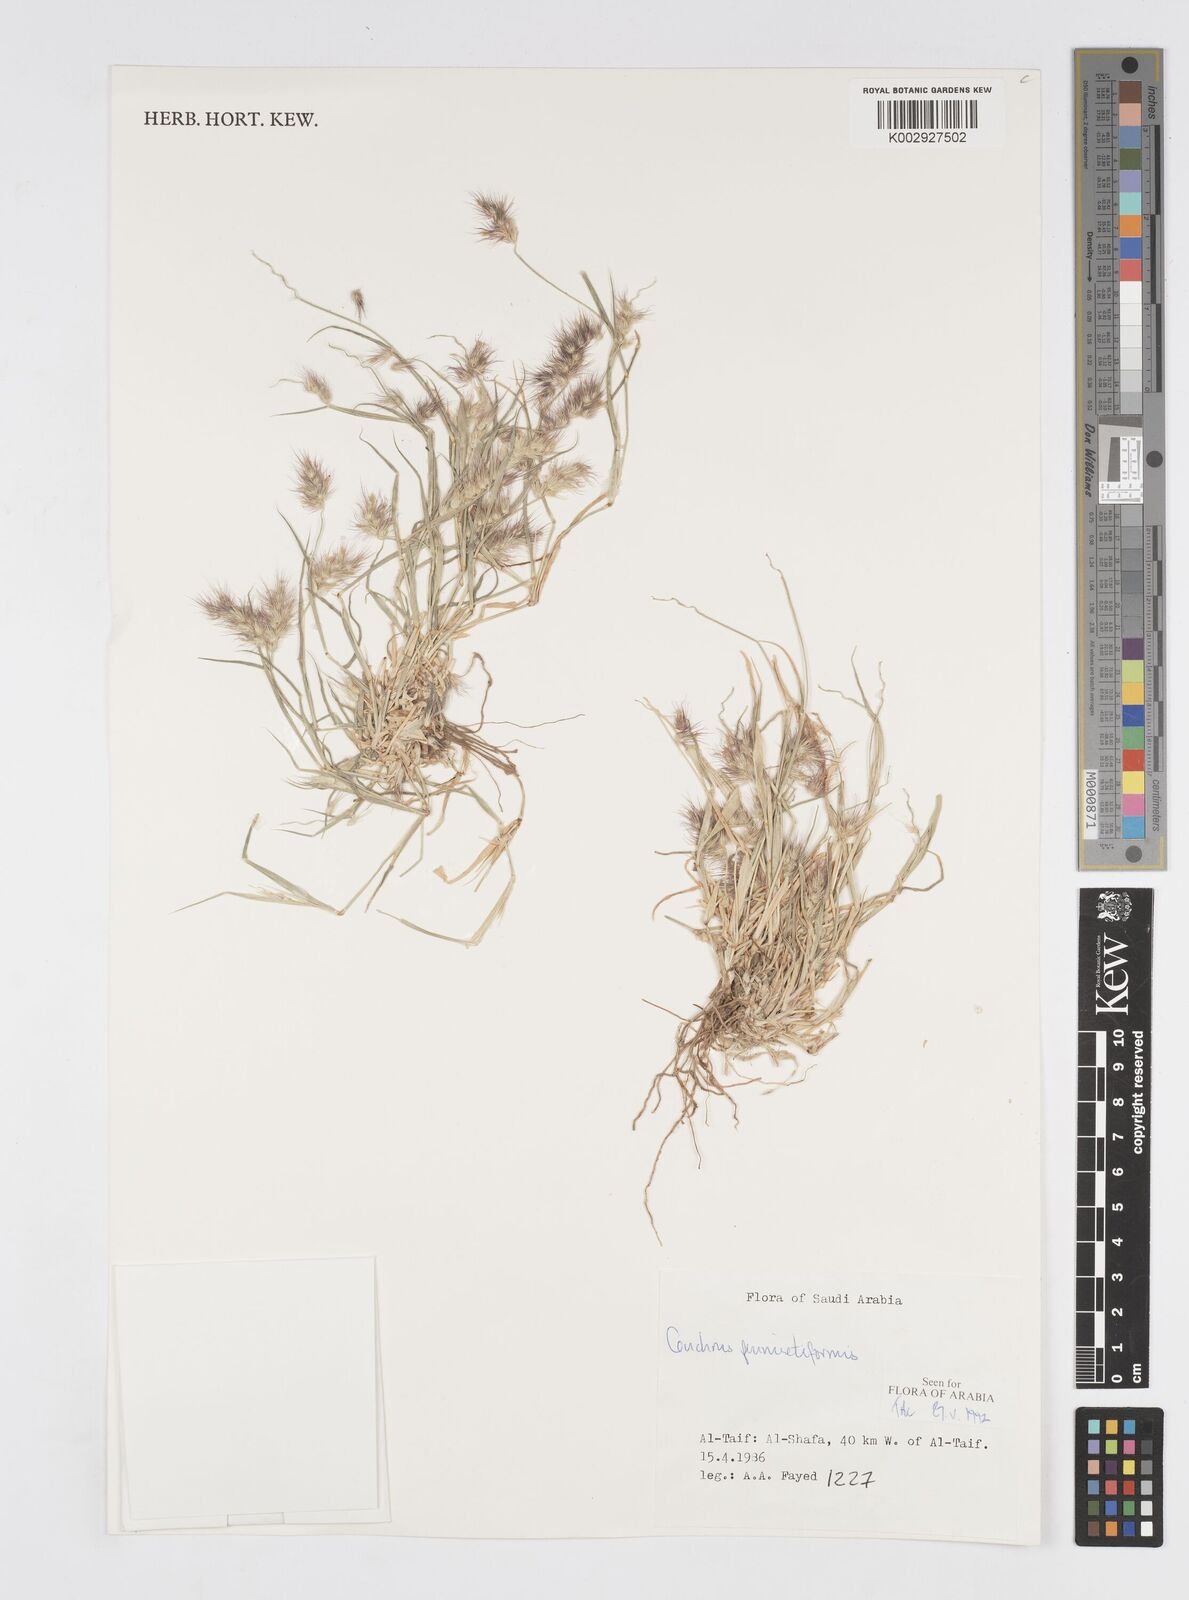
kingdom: Plantae
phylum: Tracheophyta
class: Liliopsida
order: Poales
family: Poaceae
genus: Cenchrus
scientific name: Cenchrus pennisetiformis
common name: Cloncurry
